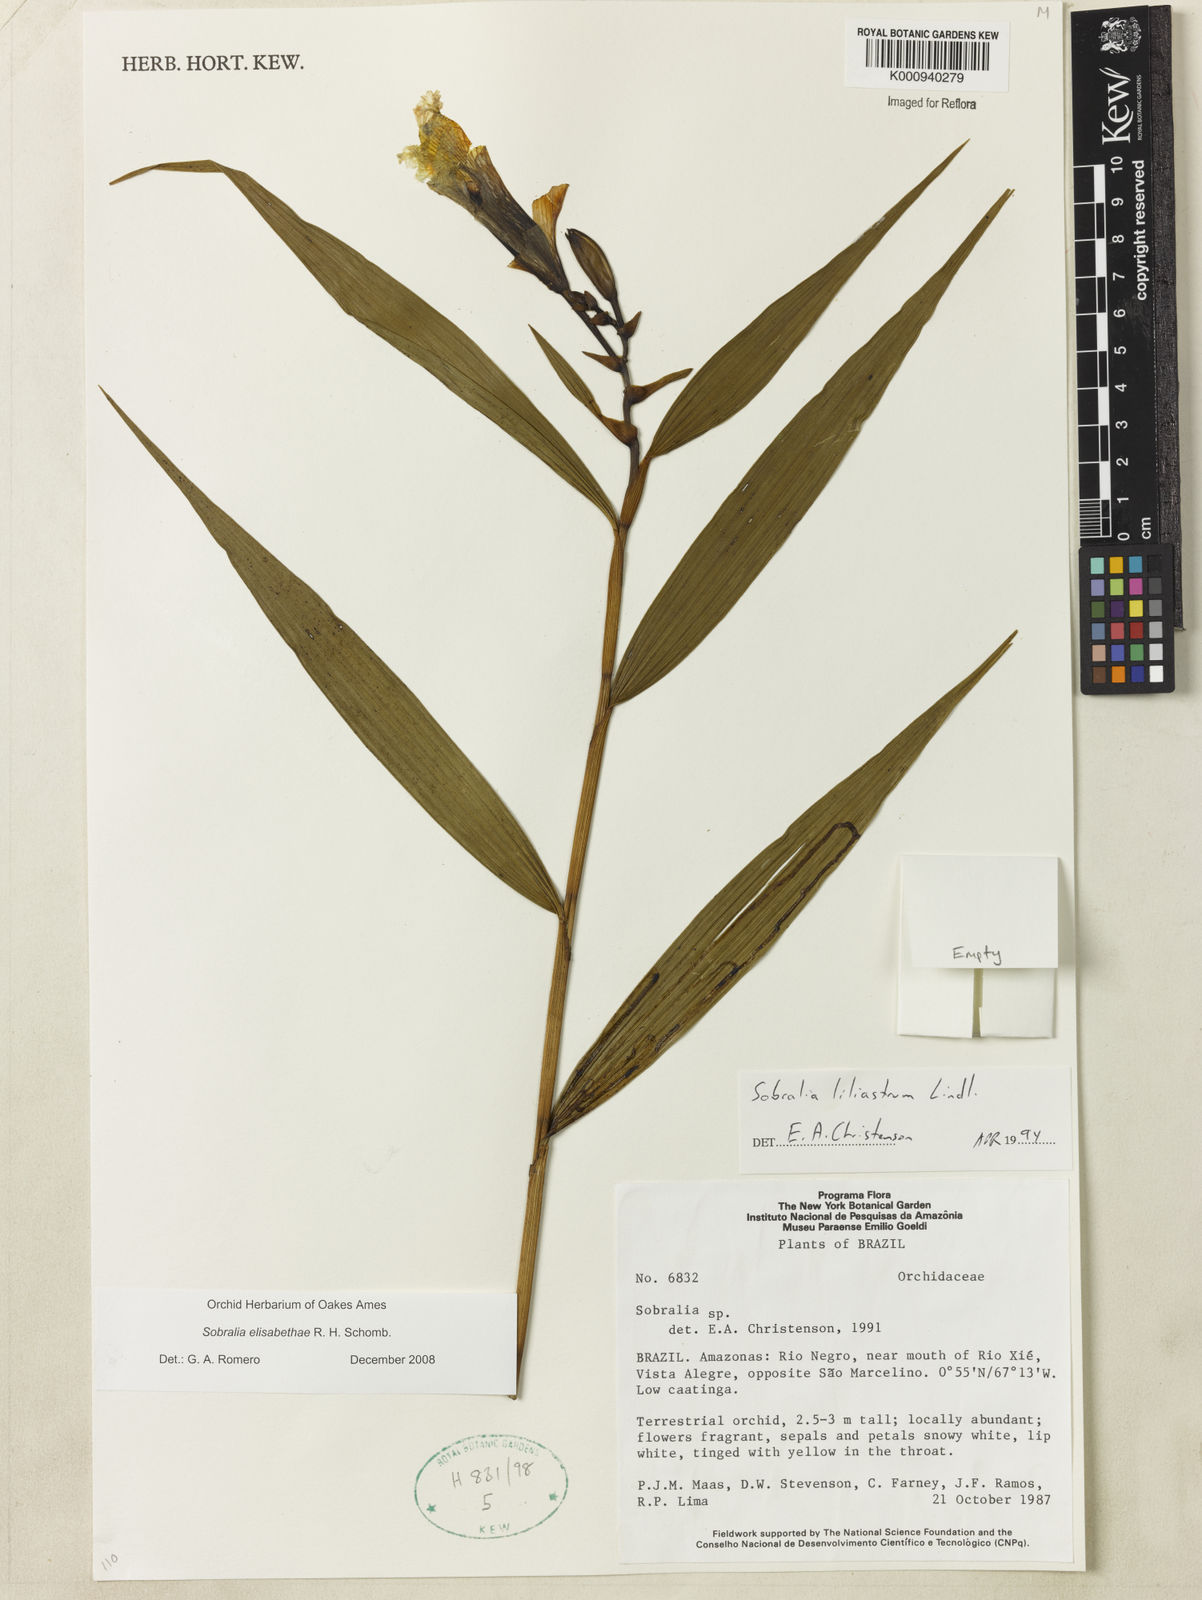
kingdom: Plantae
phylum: Tracheophyta
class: Liliopsida
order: Asparagales
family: Orchidaceae
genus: Sobralia
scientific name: Sobralia elisabethae
